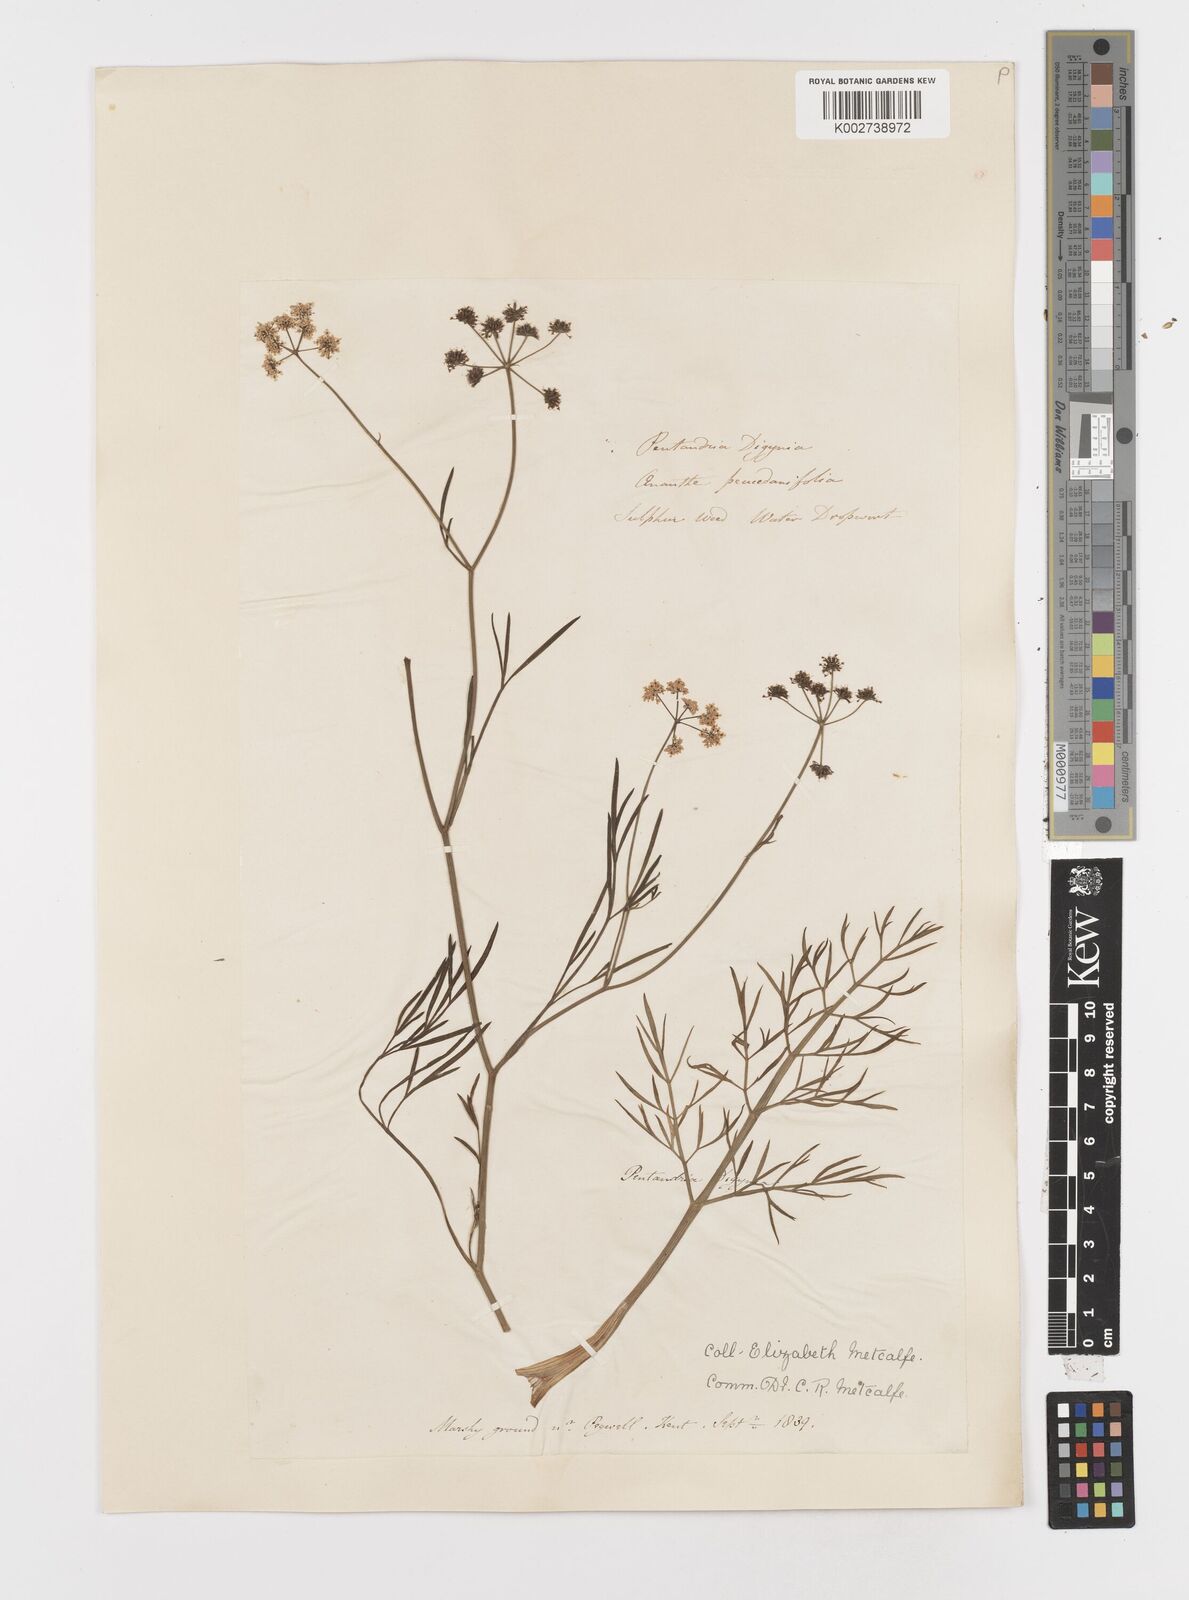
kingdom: Plantae
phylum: Tracheophyta
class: Magnoliopsida
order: Apiales
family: Apiaceae
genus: Oenanthe
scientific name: Oenanthe lachenalii
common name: Parsley water-dropwort
